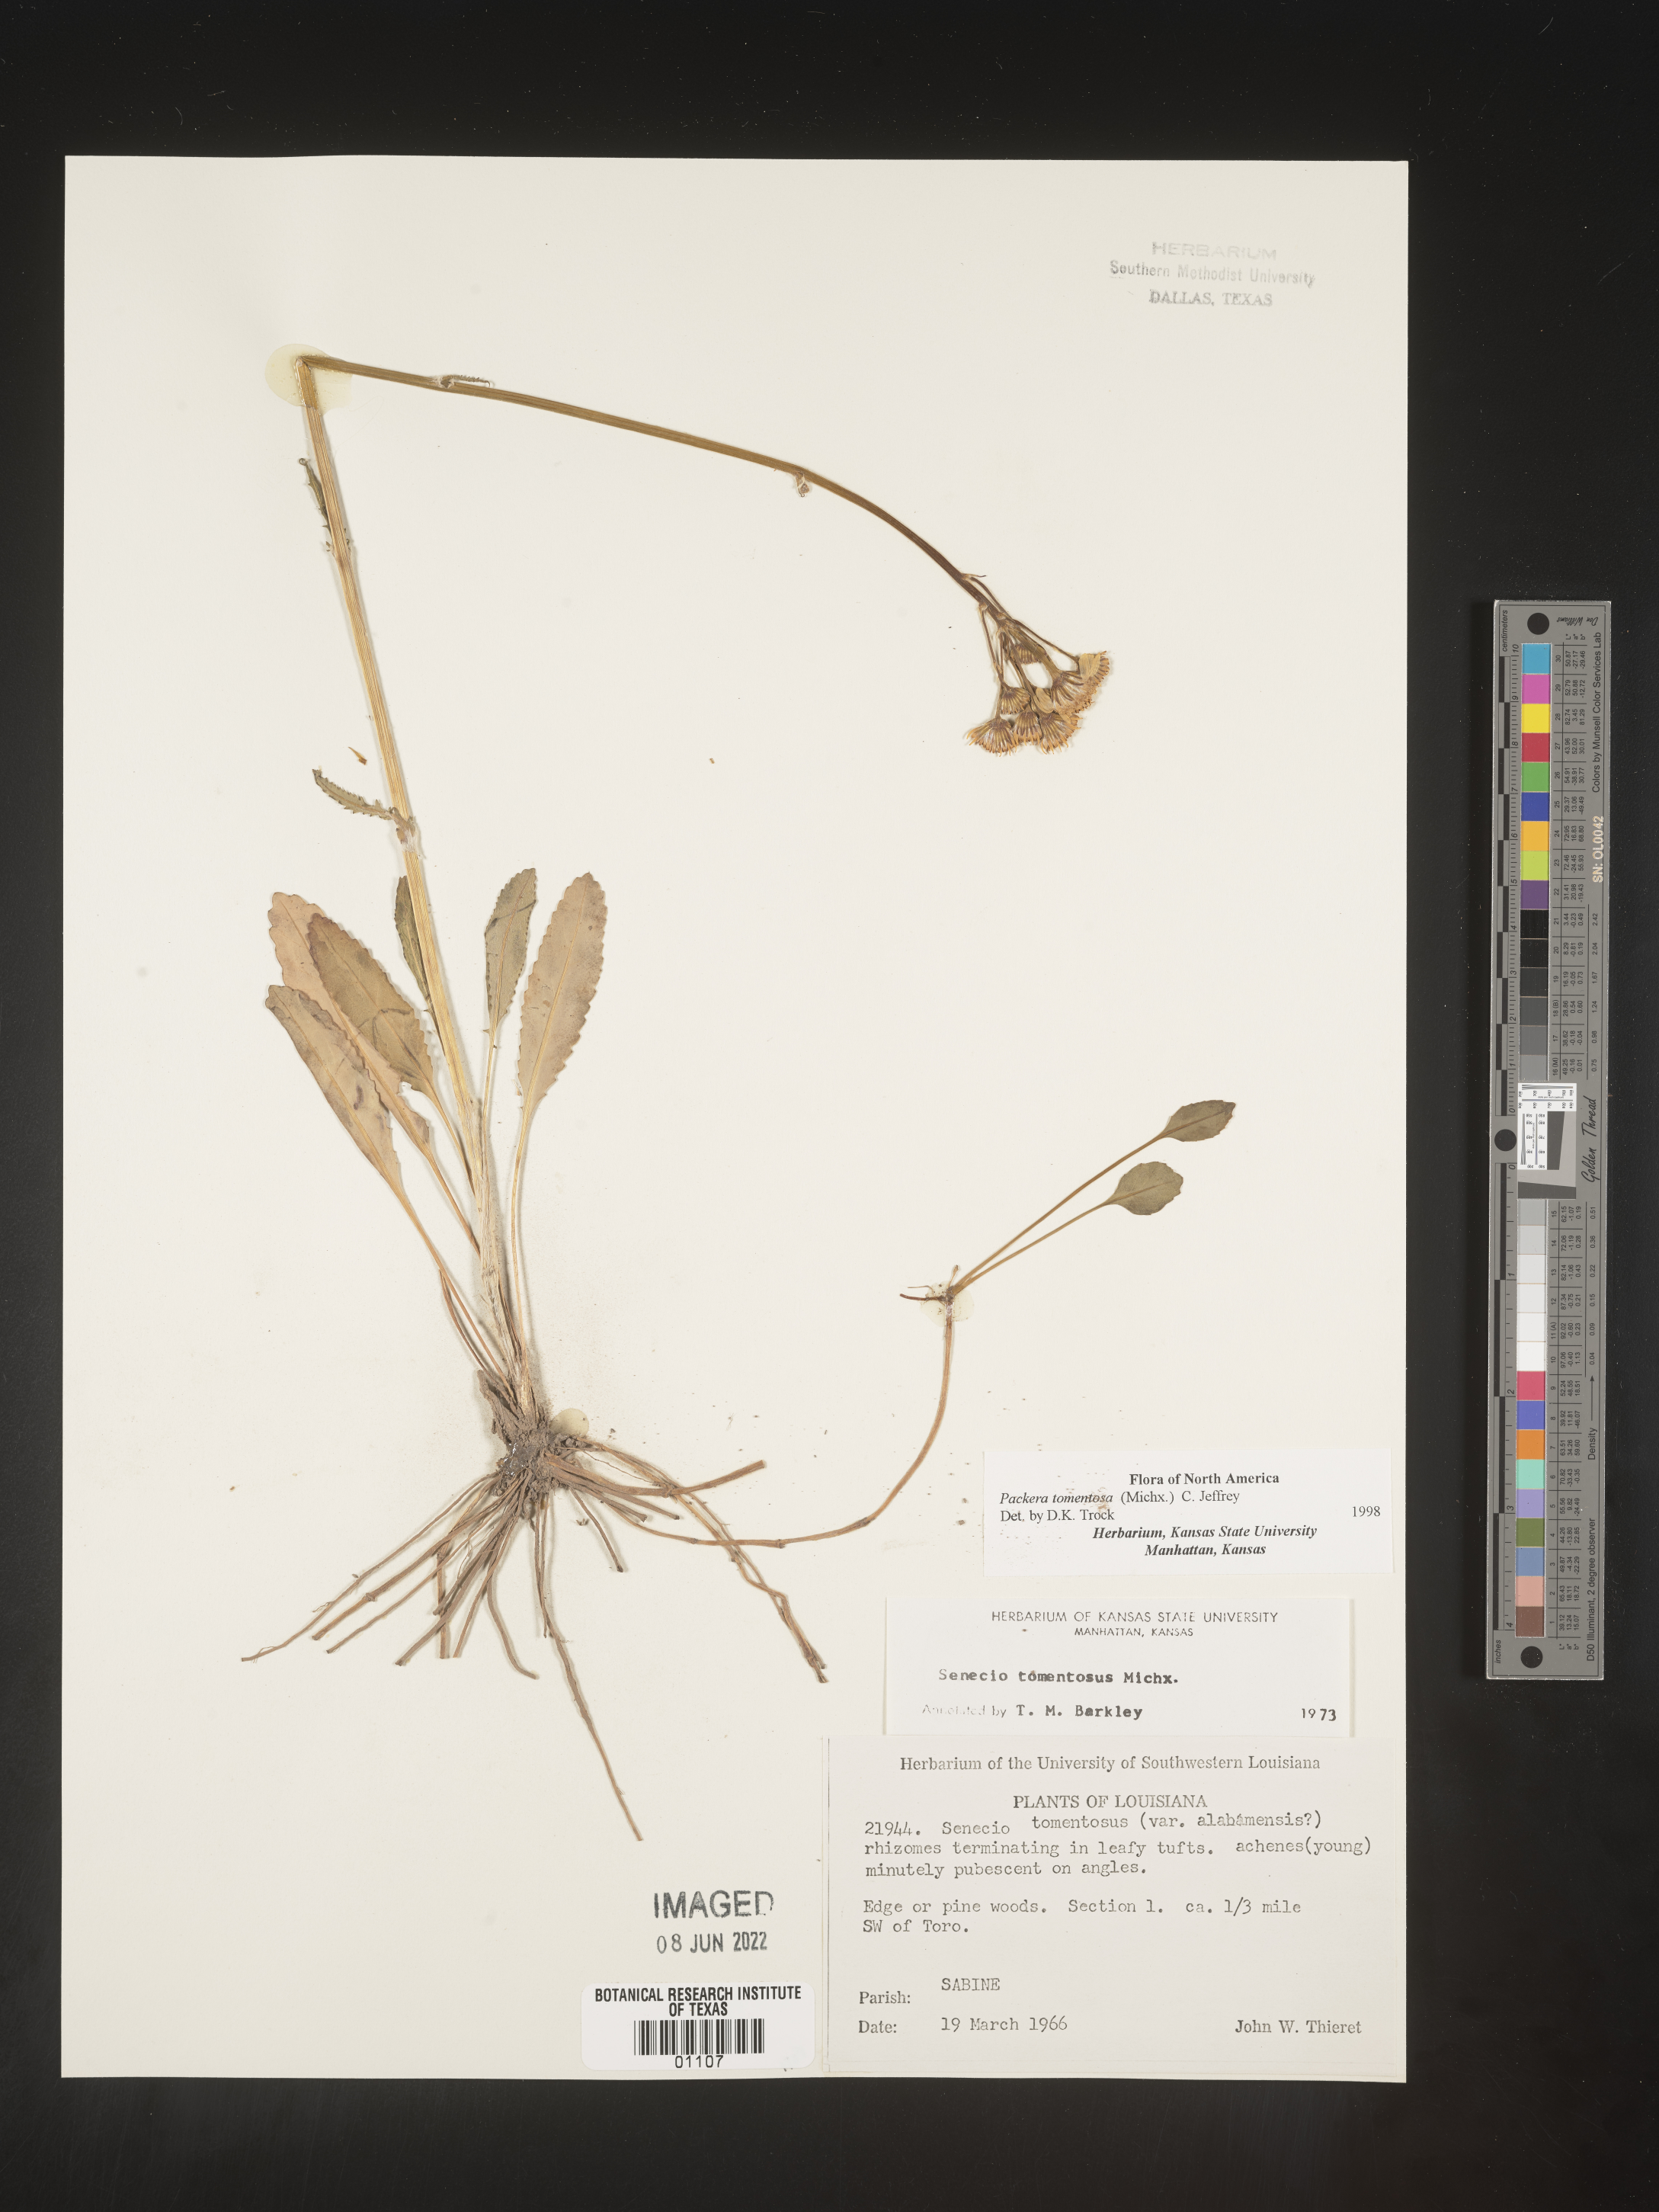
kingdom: Plantae
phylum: Tracheophyta
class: Magnoliopsida
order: Asterales
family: Asteraceae
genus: Packera
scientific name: Packera dubia
